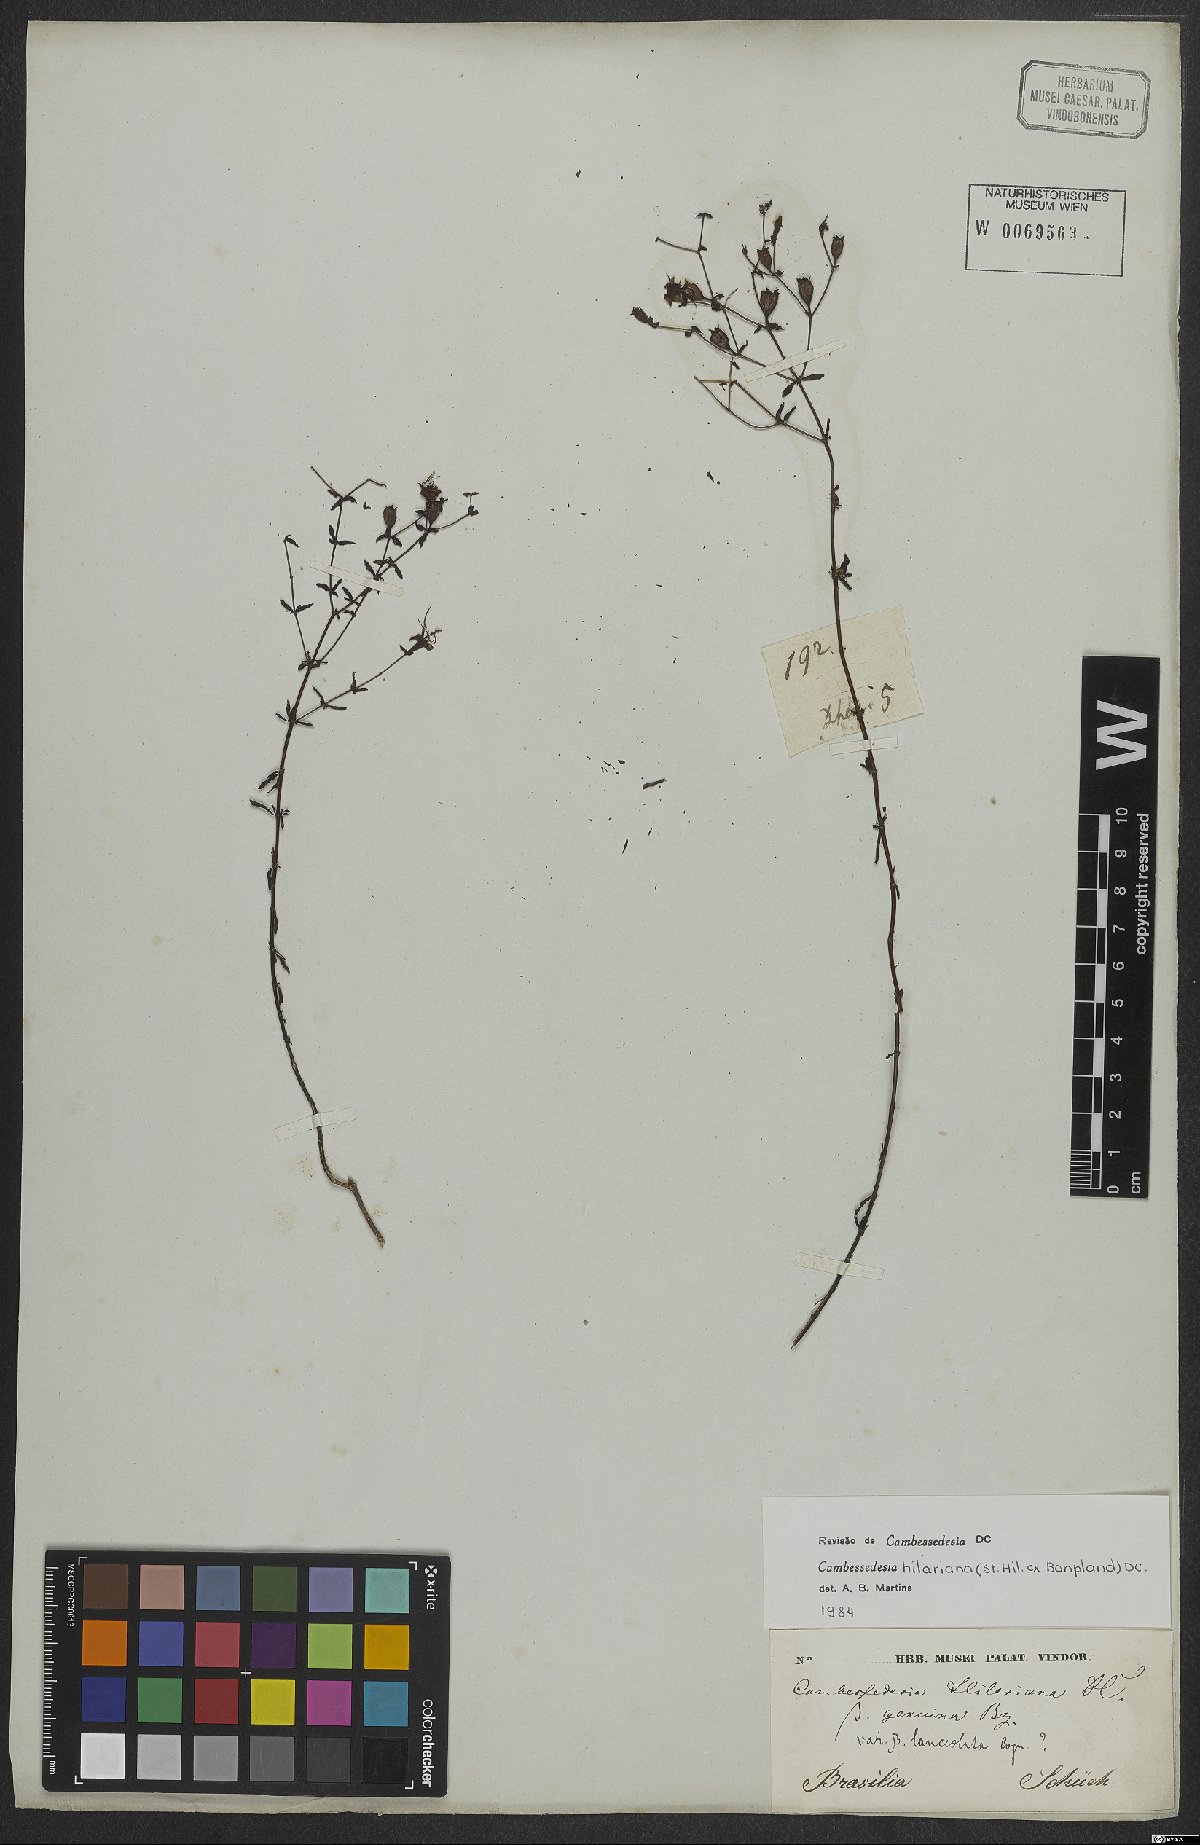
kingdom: Plantae
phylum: Tracheophyta
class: Magnoliopsida
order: Myrtales
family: Melastomataceae
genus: Cambessedesia
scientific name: Cambessedesia hilariana
